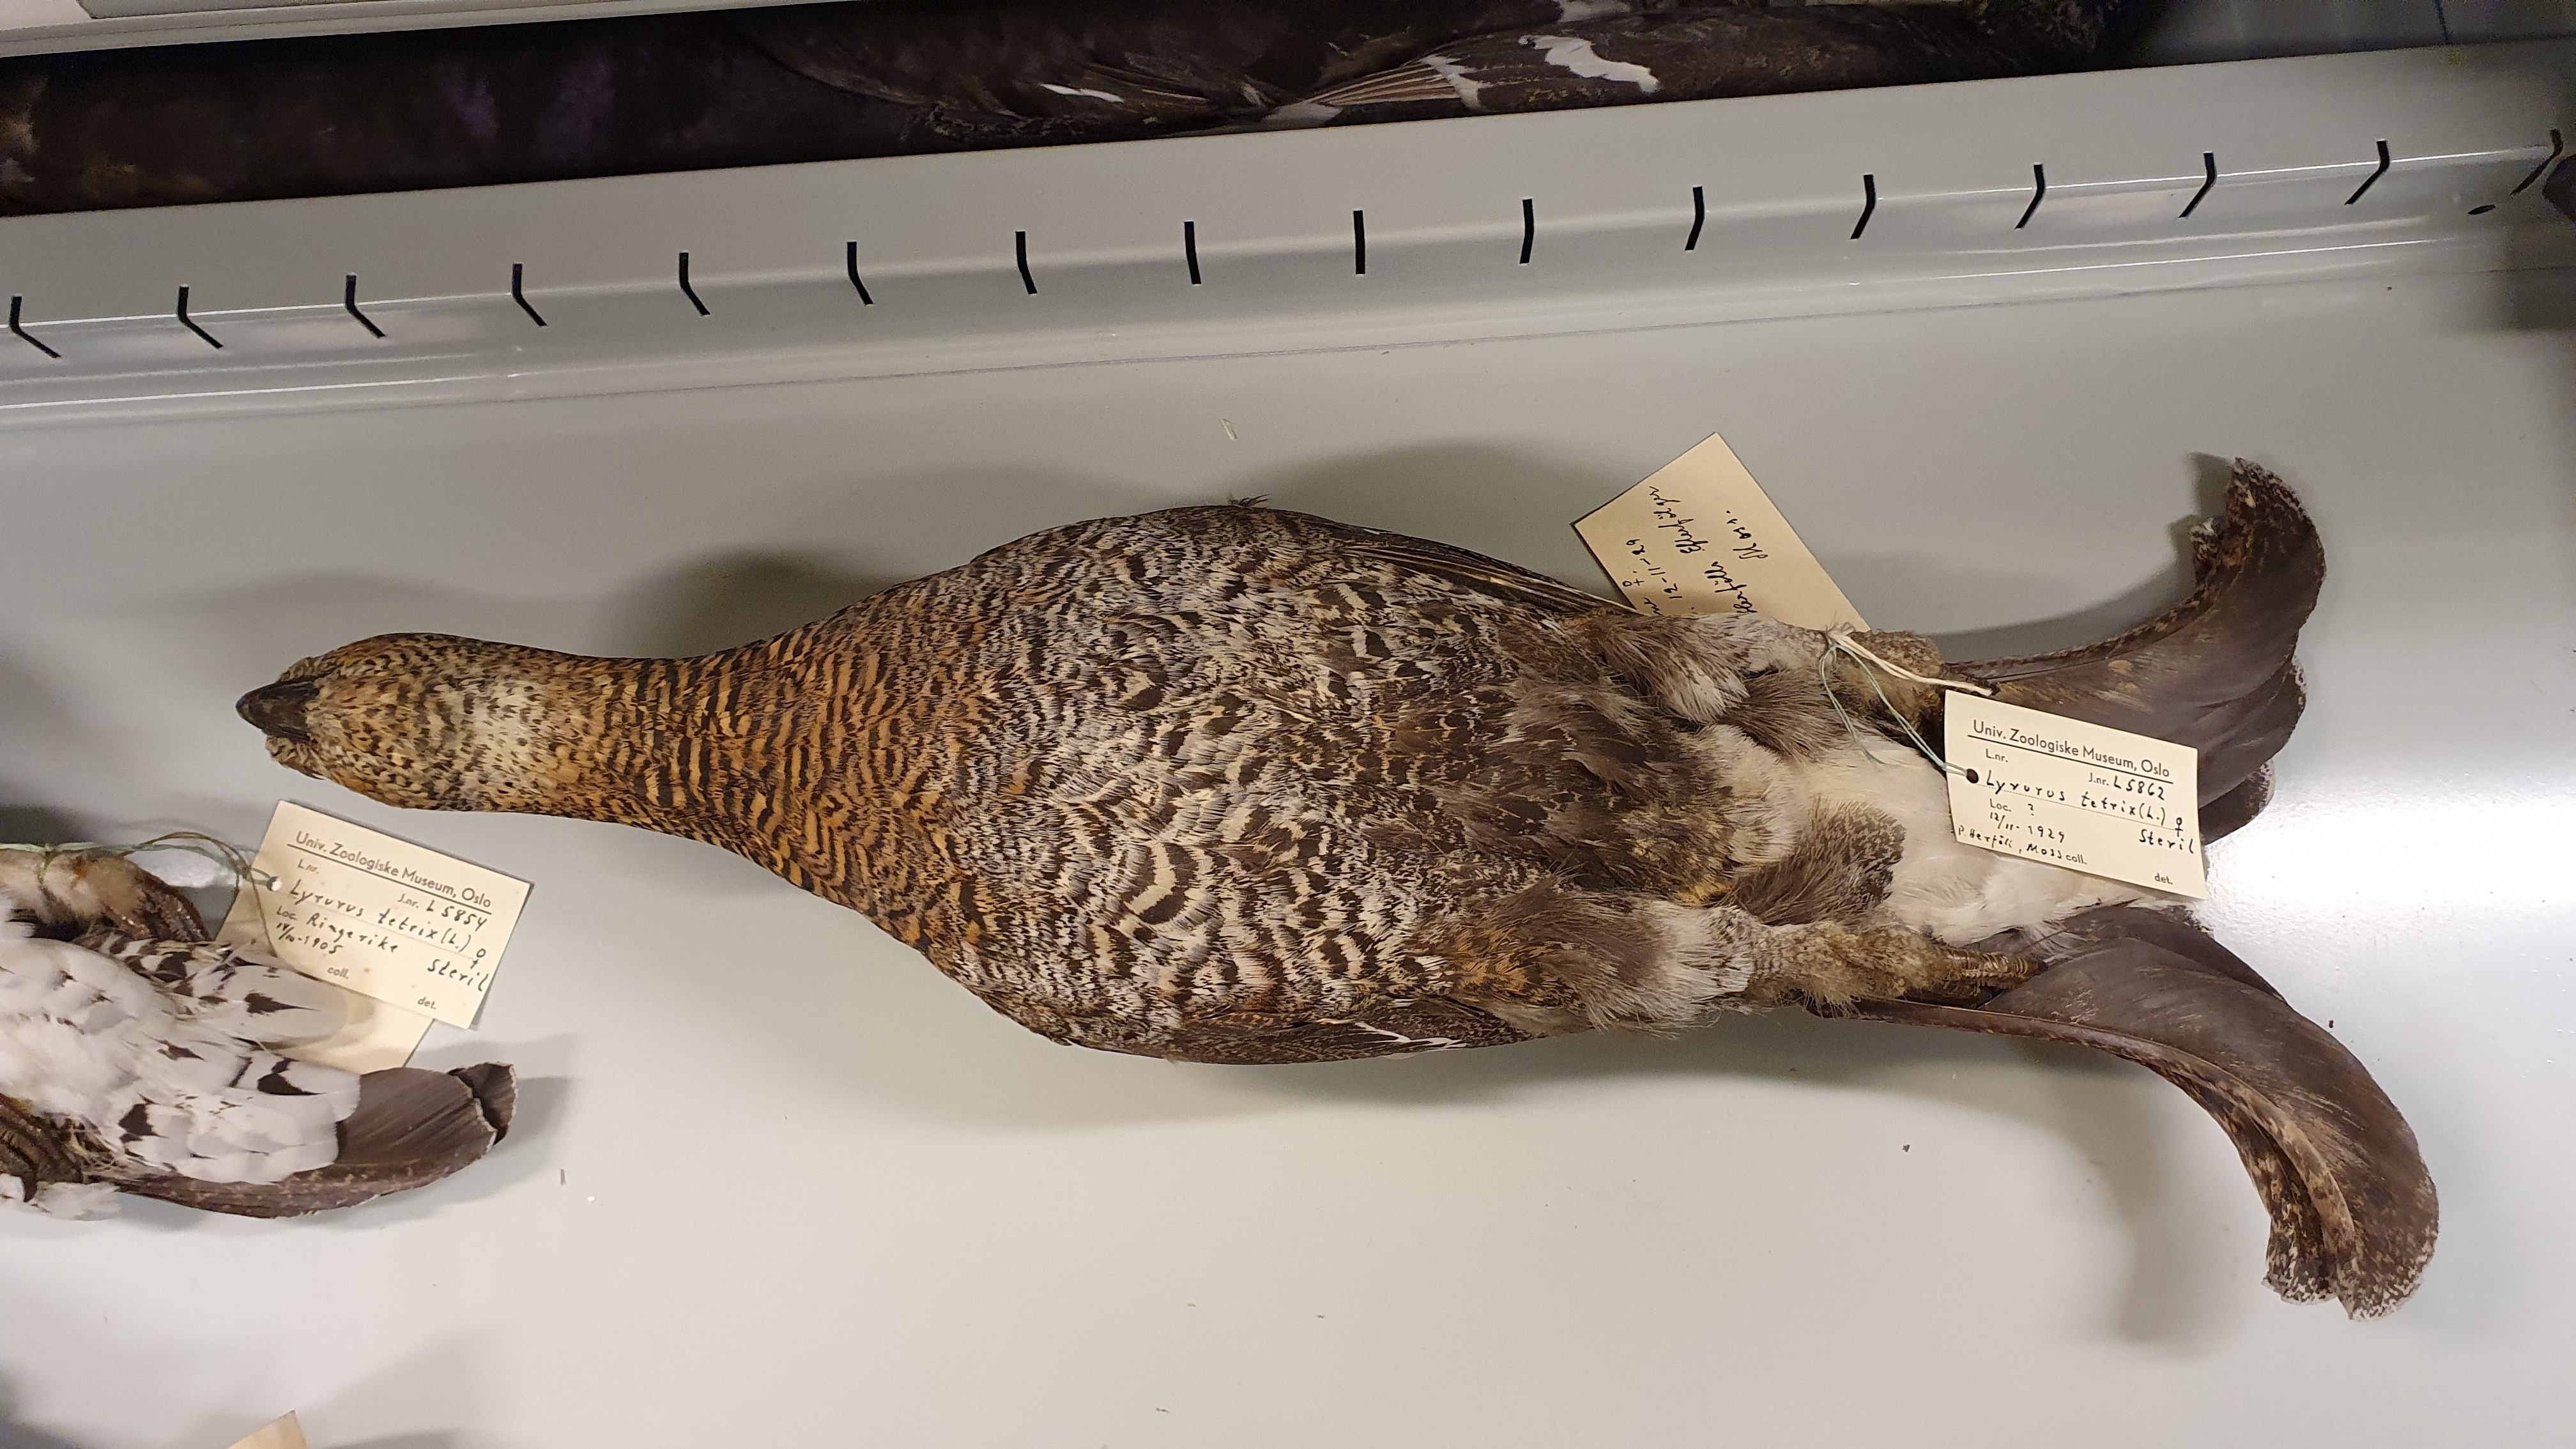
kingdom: Animalia
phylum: Chordata
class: Aves
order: Galliformes
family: Phasianidae
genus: Lyrurus
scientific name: Lyrurus tetrix
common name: Black grouse
